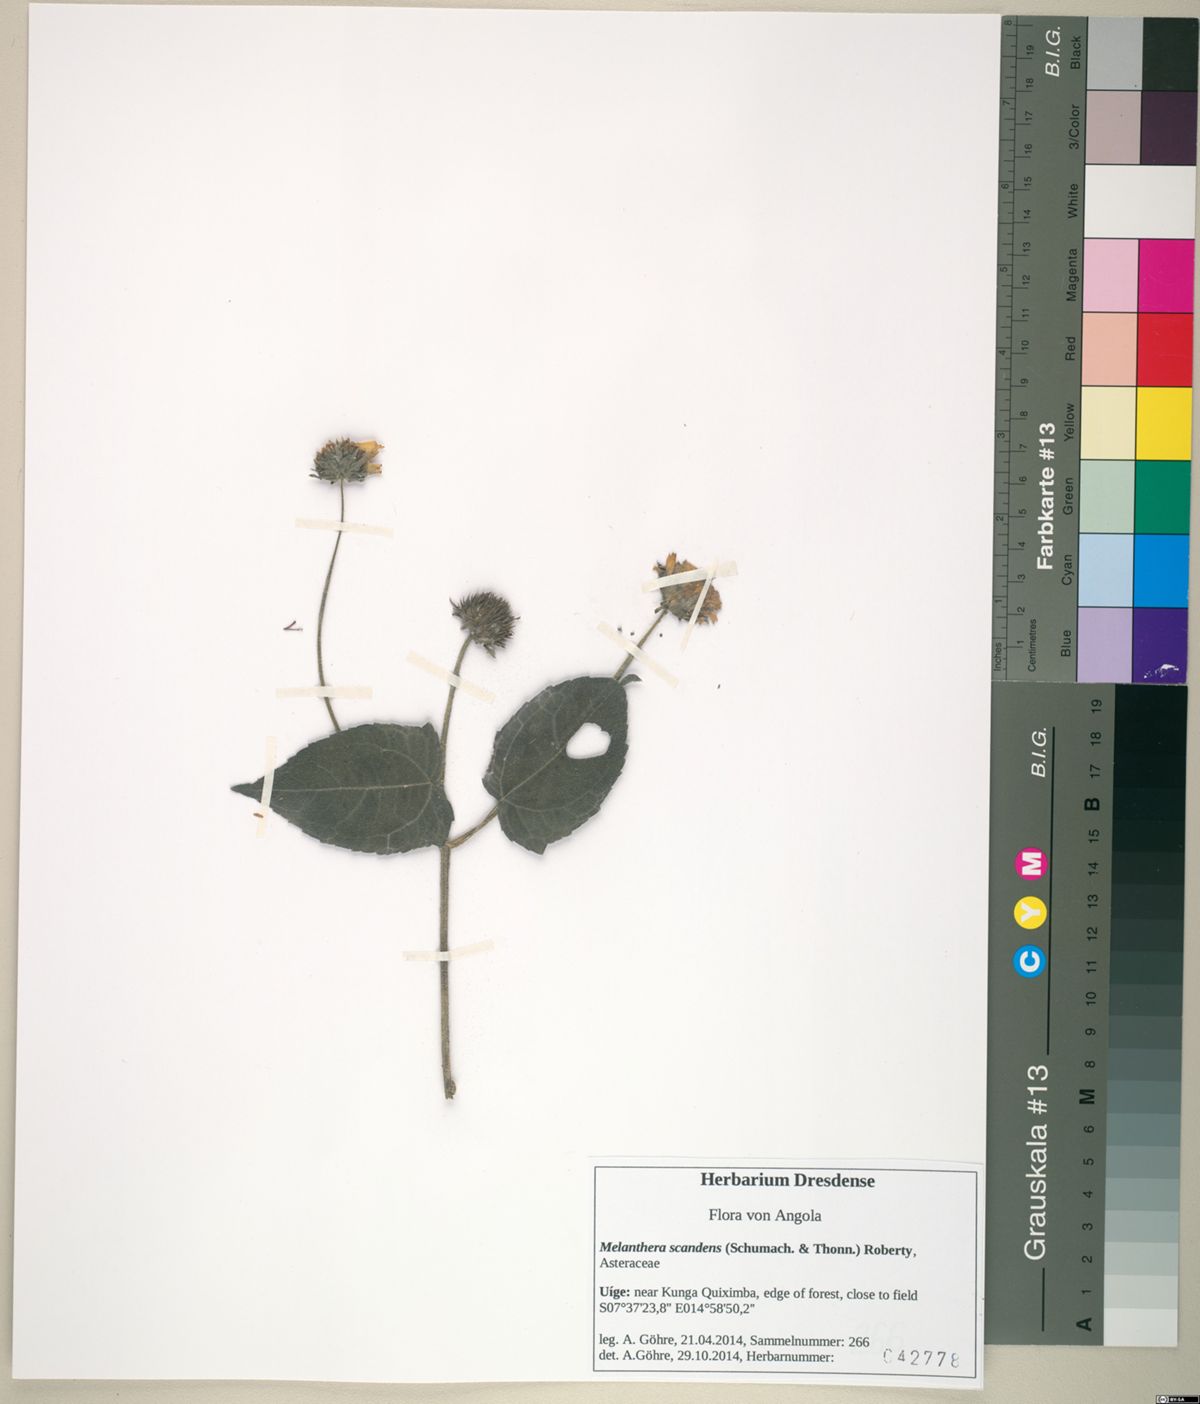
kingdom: Plantae
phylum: Tracheophyta
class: Magnoliopsida
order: Asterales
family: Asteraceae
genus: Melanthera
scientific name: Melanthera scandens
